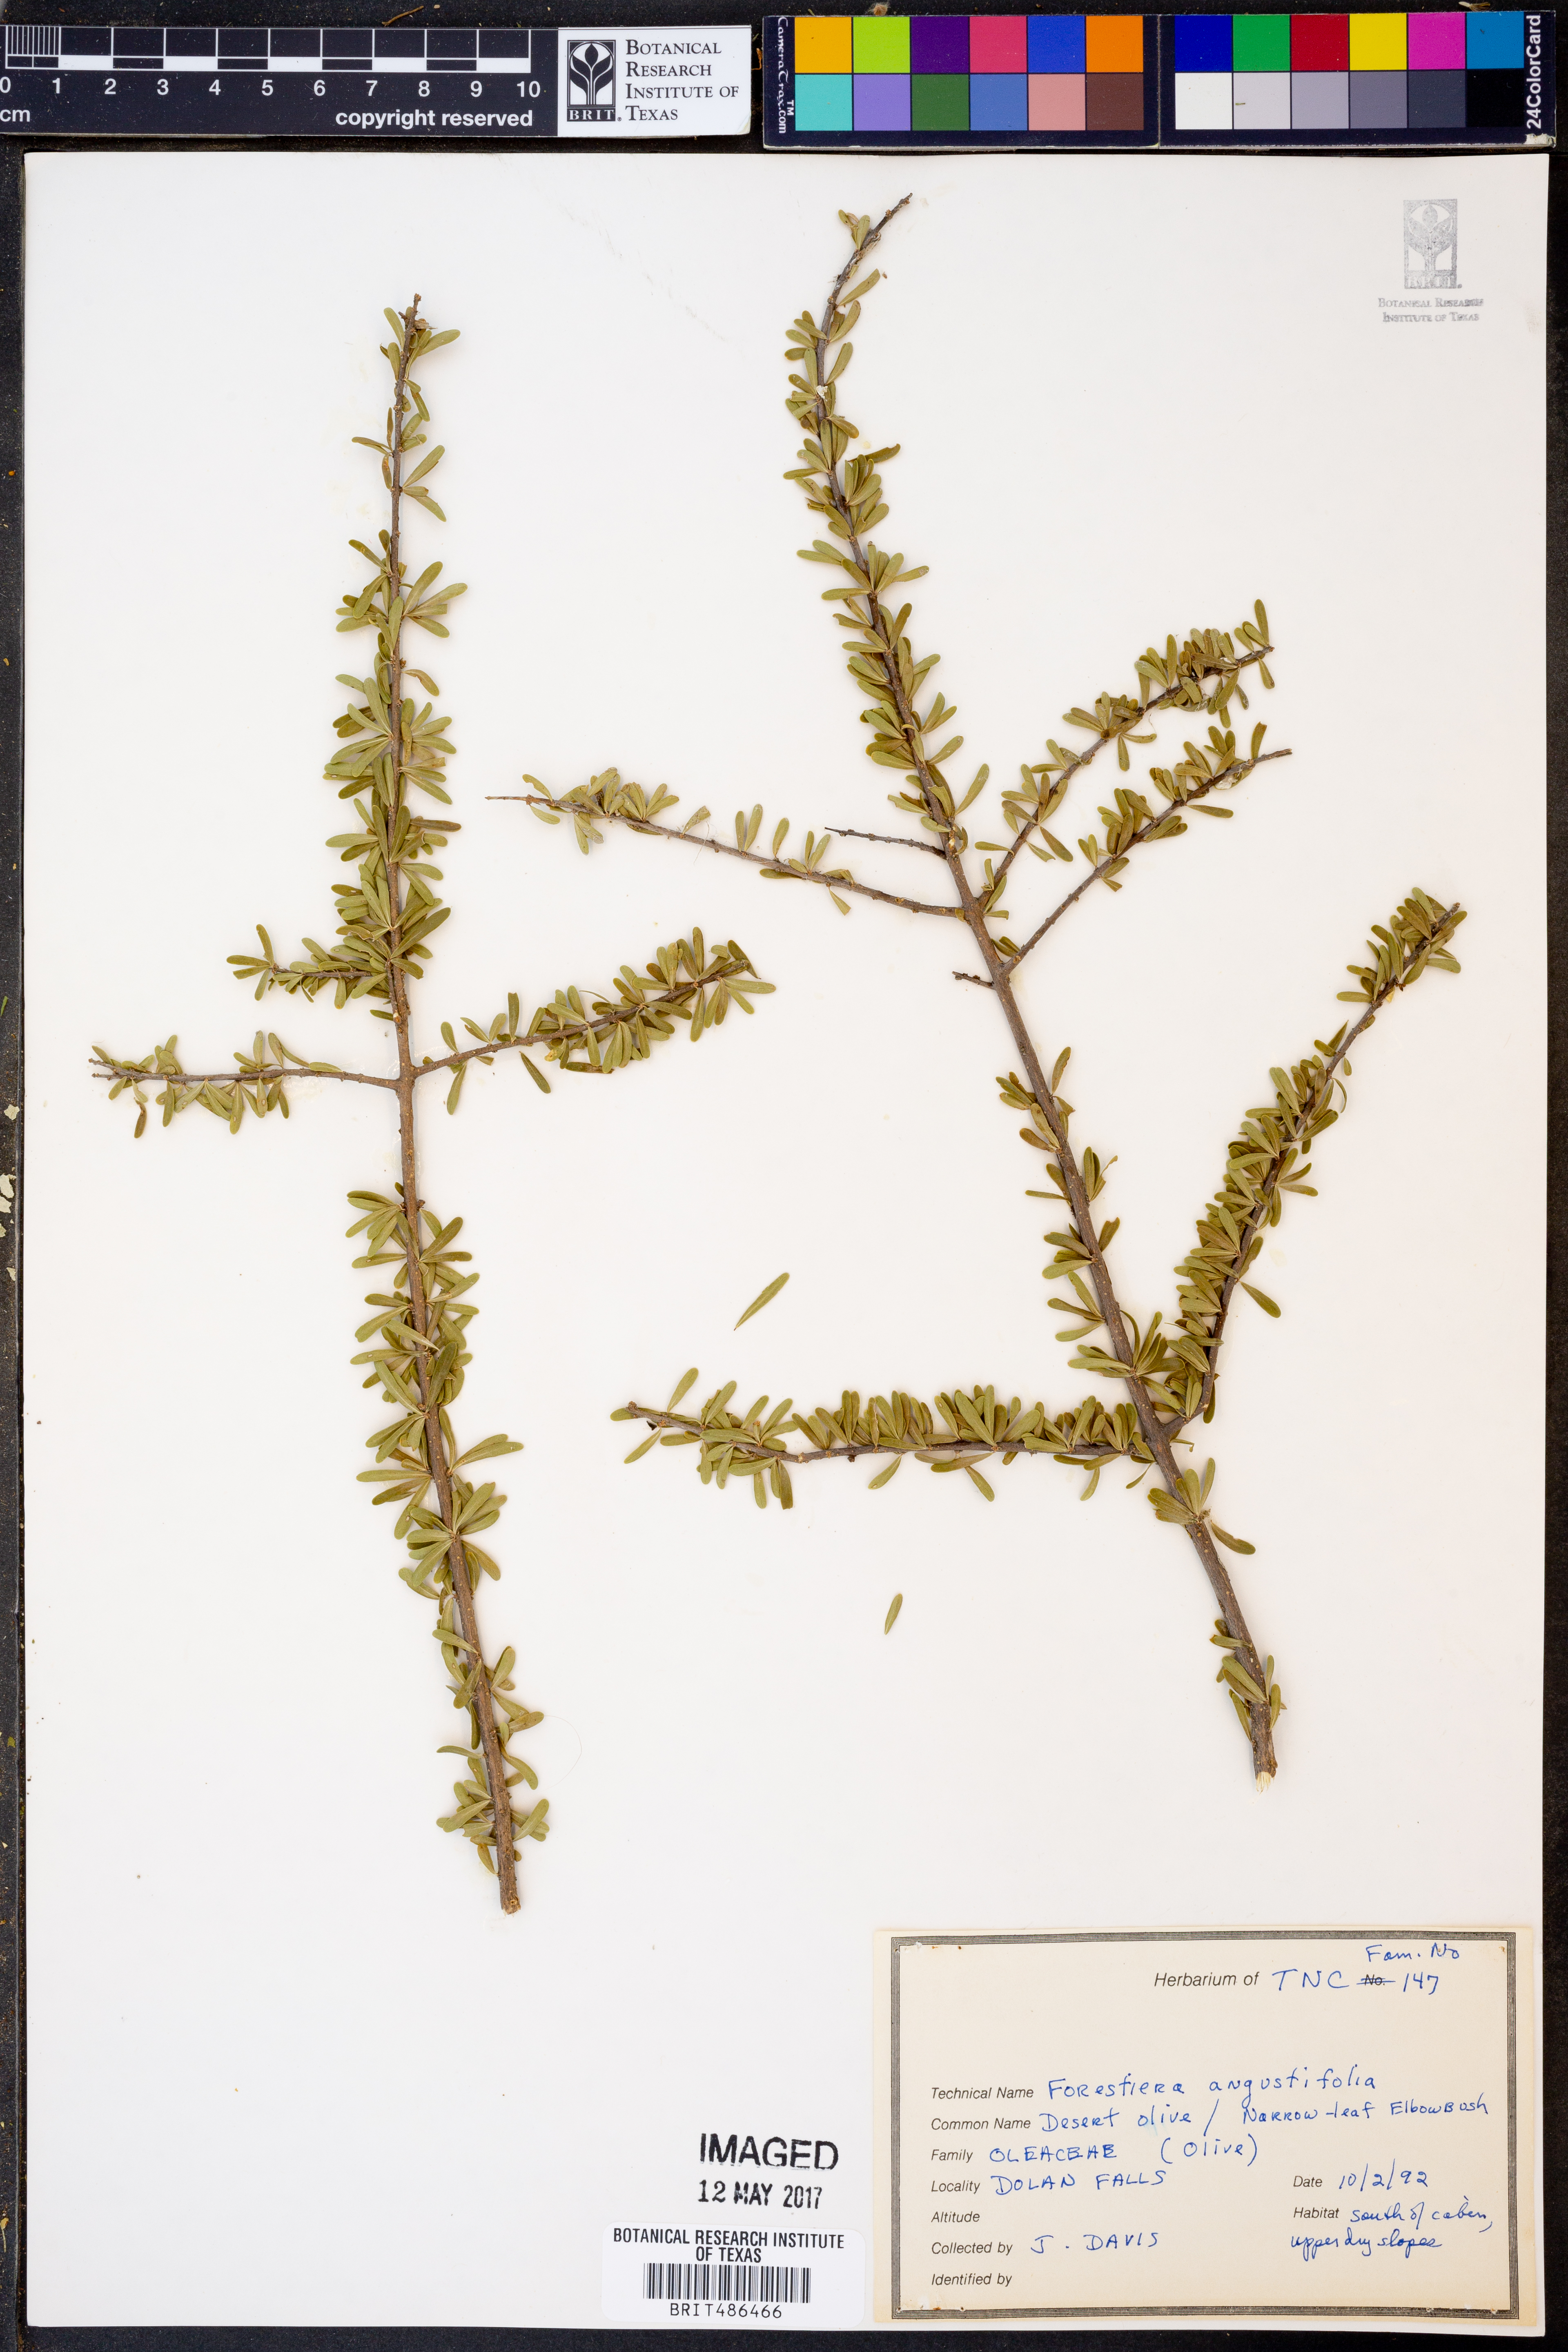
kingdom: Plantae
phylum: Tracheophyta
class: Magnoliopsida
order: Lamiales
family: Oleaceae
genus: Forestiera
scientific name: Forestiera angustifolia
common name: Elbowbush
